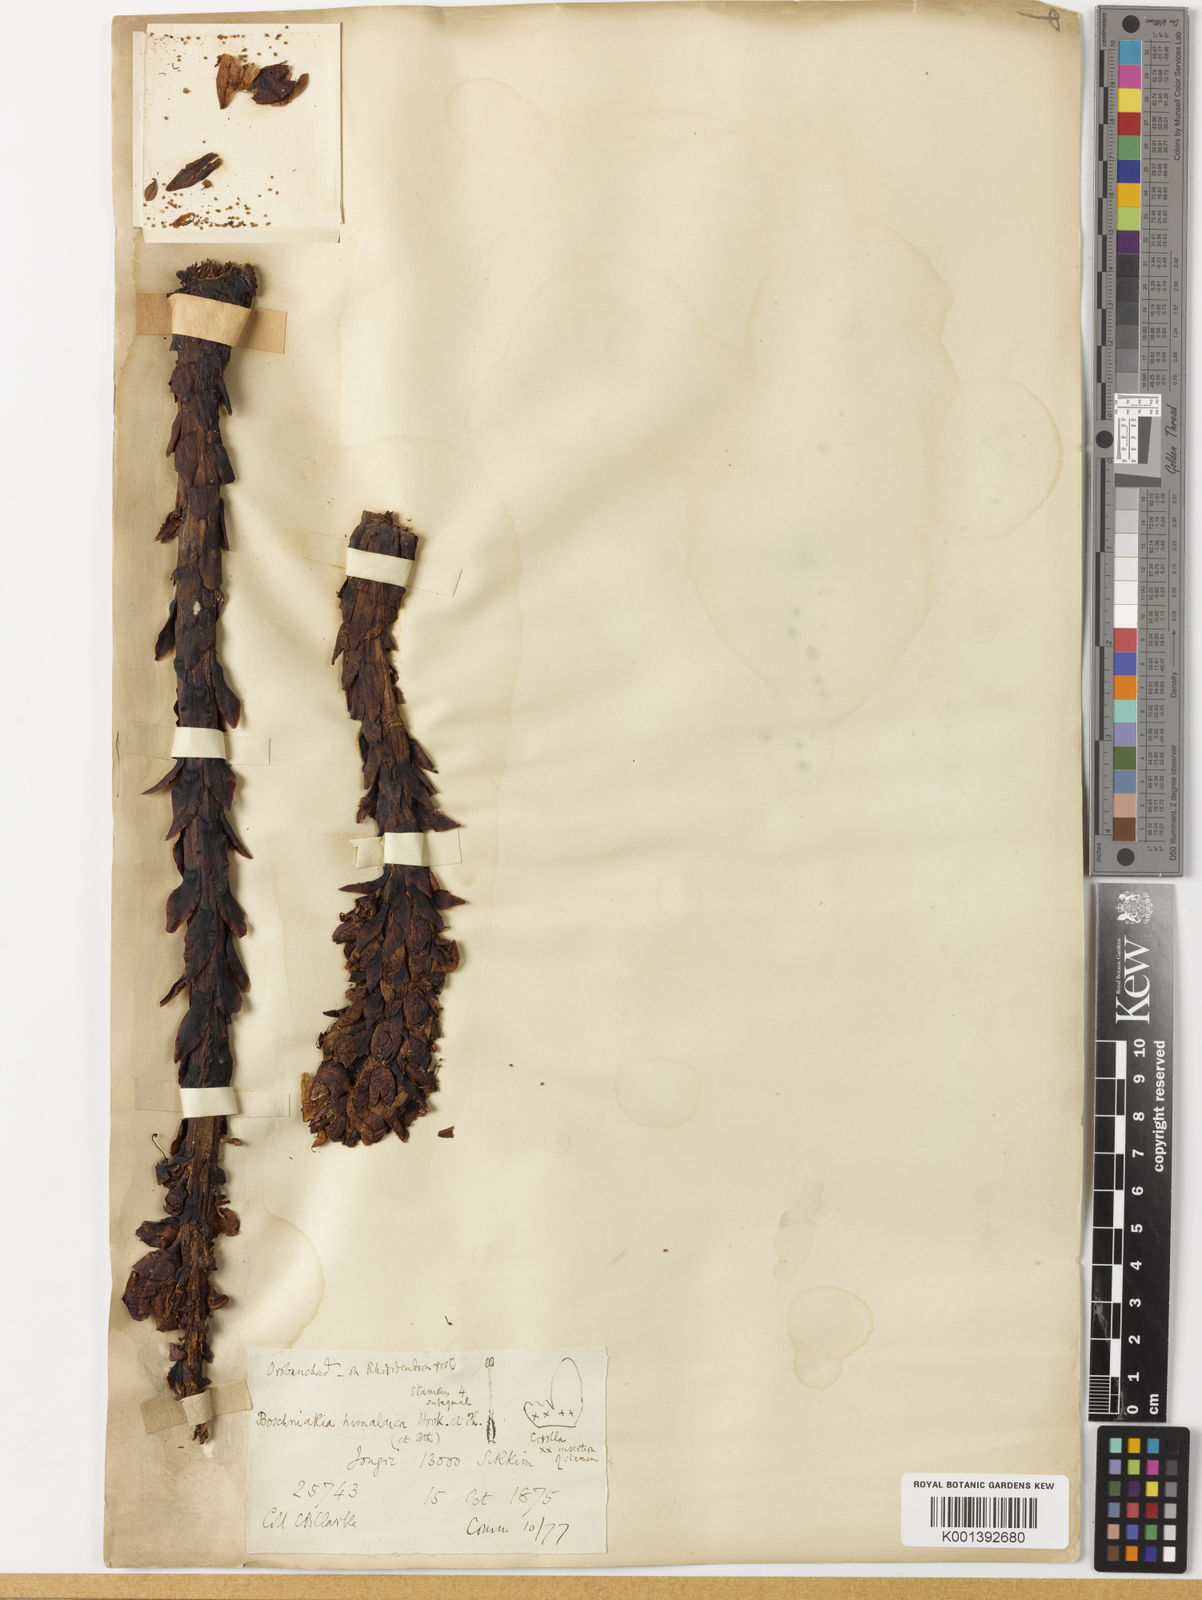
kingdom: Plantae
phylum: Tracheophyta
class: Magnoliopsida
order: Lamiales
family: Orobanchaceae
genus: Boschniakia
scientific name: Boschniakia himalaica
